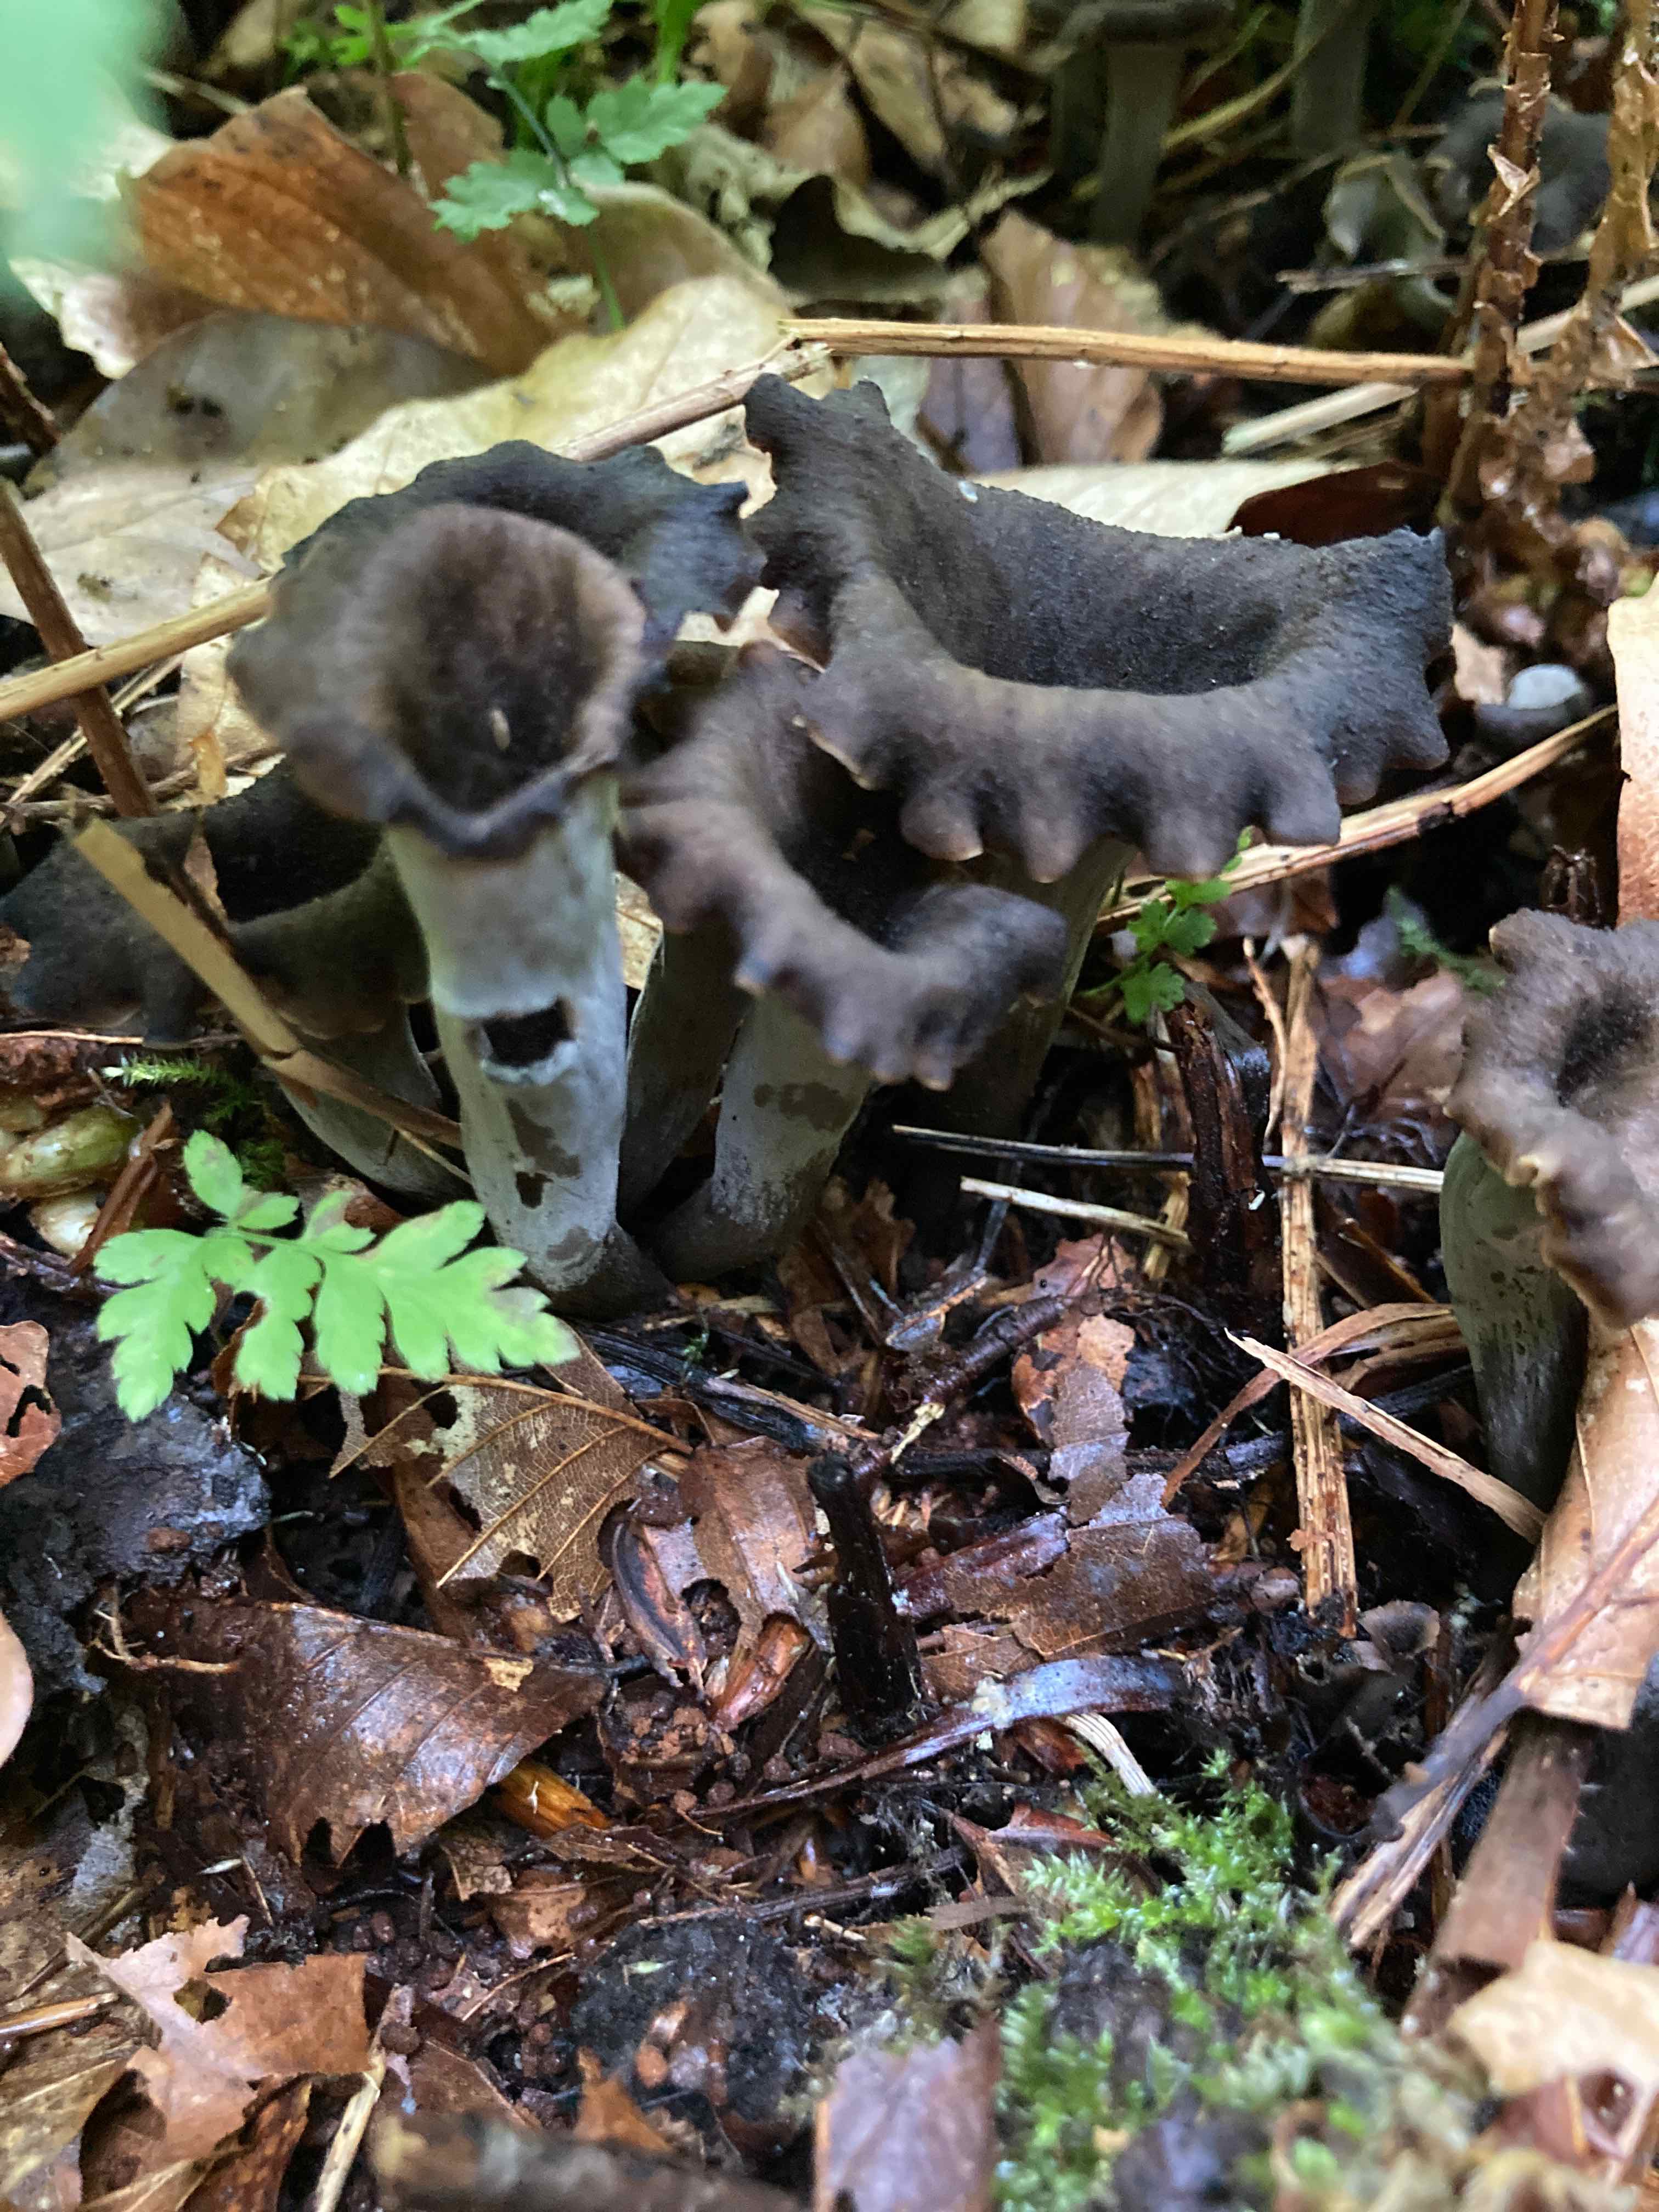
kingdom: Fungi
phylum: Basidiomycota
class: Agaricomycetes
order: Cantharellales
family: Hydnaceae
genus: Craterellus
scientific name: Craterellus cornucopioides
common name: trompetsvamp
